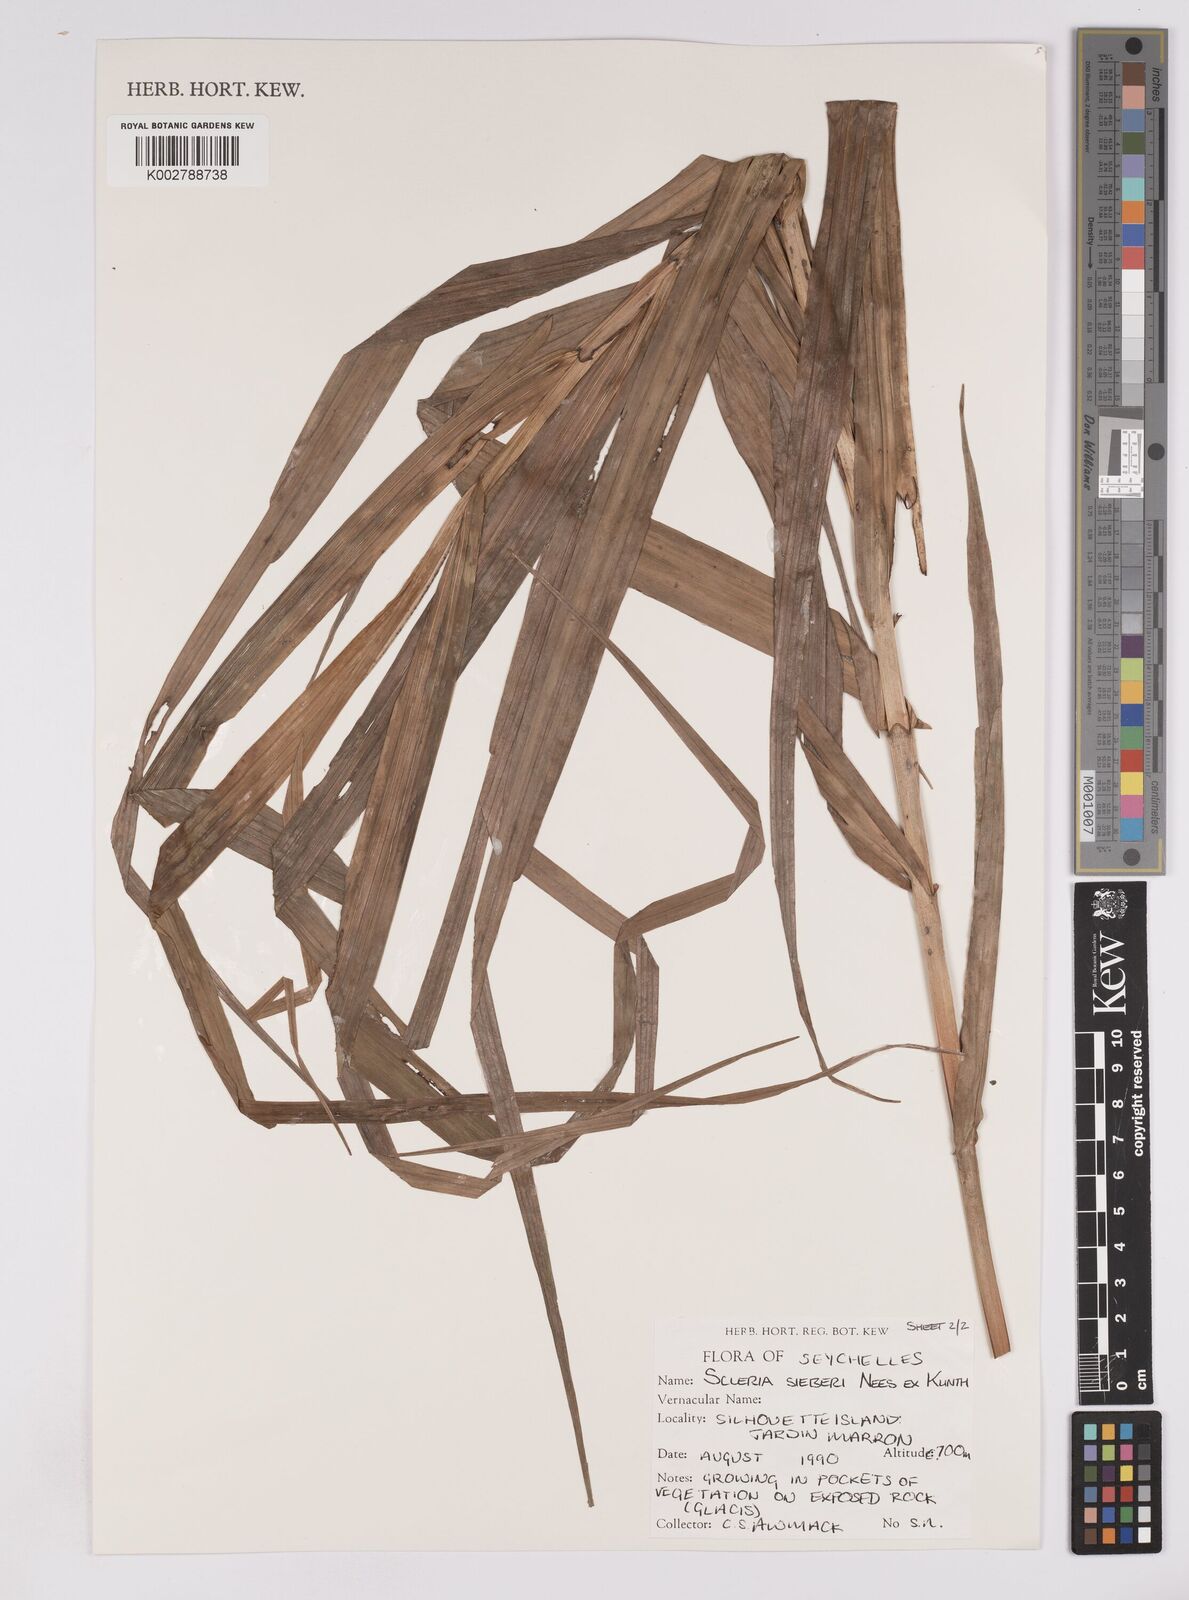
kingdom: Plantae
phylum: Tracheophyta
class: Liliopsida
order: Poales
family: Cyperaceae
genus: Scleria
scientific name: Scleria gaertneri
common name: Cortadera blanca
